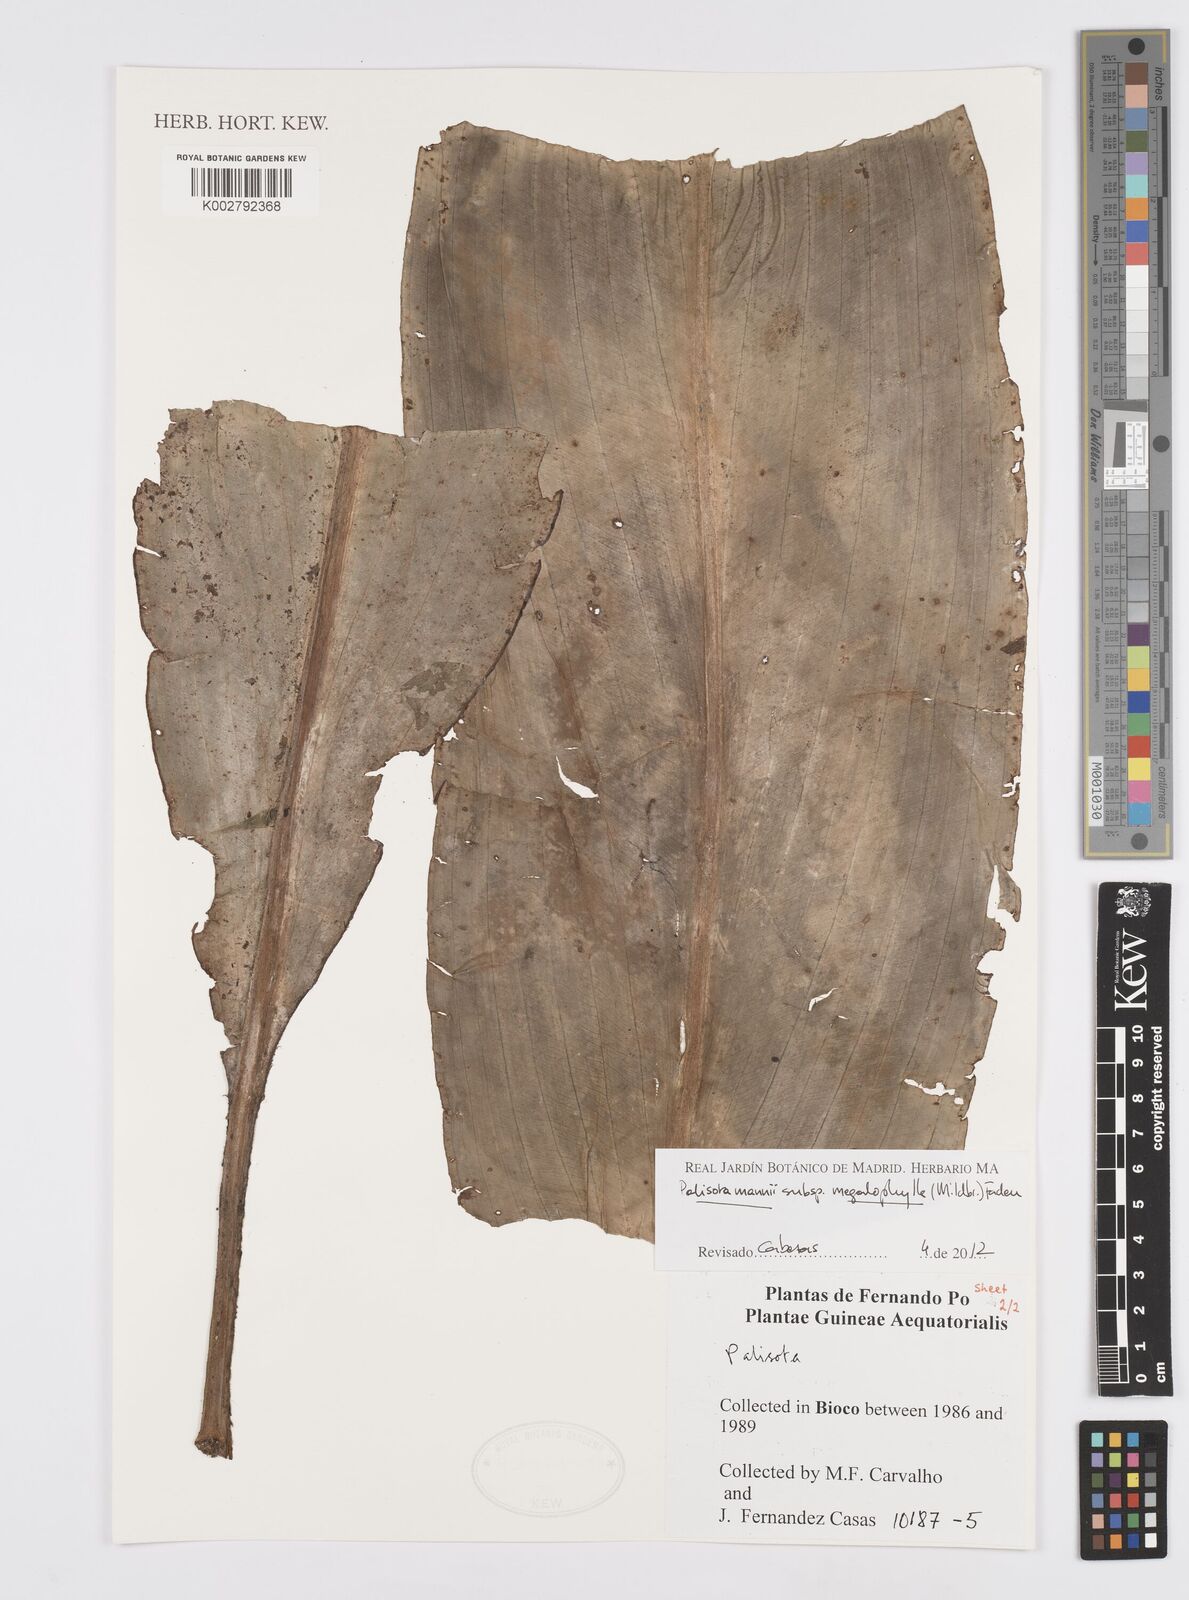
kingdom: Plantae
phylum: Tracheophyta
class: Liliopsida
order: Commelinales
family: Commelinaceae
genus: Palisota
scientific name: Palisota mannii
